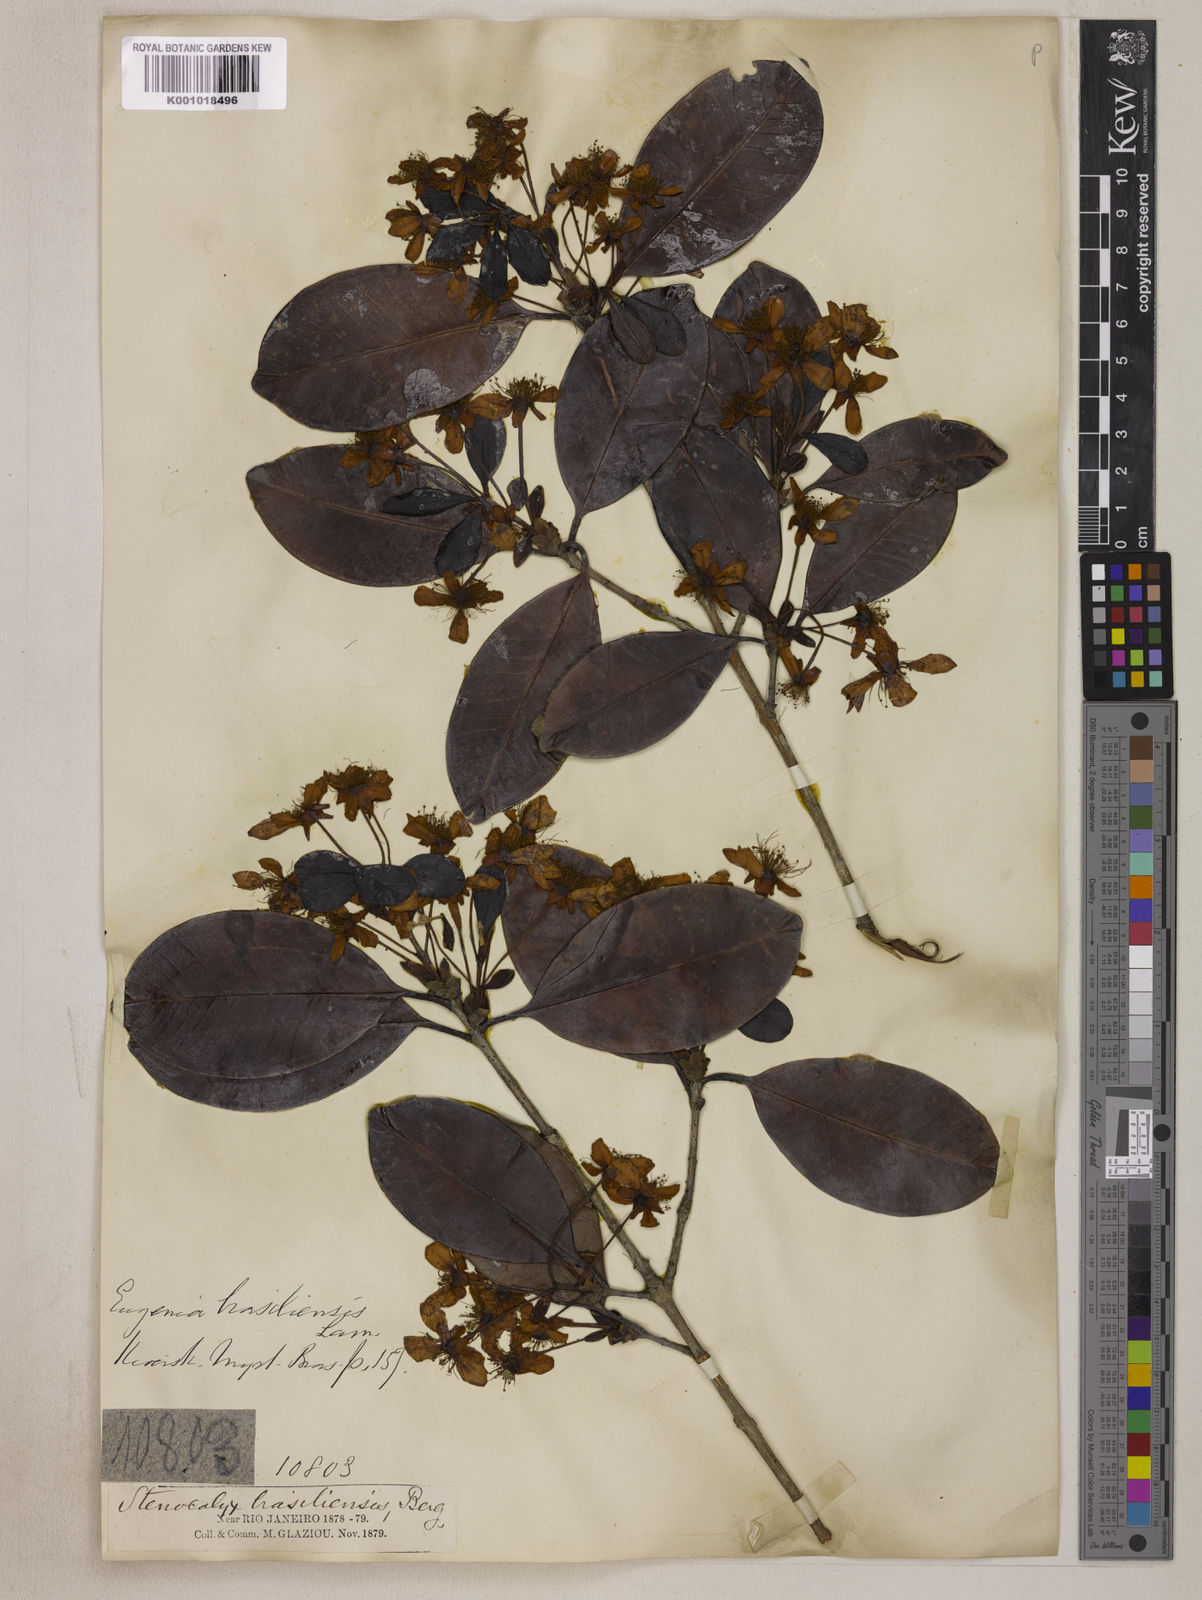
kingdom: Plantae
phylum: Tracheophyta
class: Magnoliopsida
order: Myrtales
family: Myrtaceae
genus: Eugenia
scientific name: Eugenia brasiliensis
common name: Grumichama
